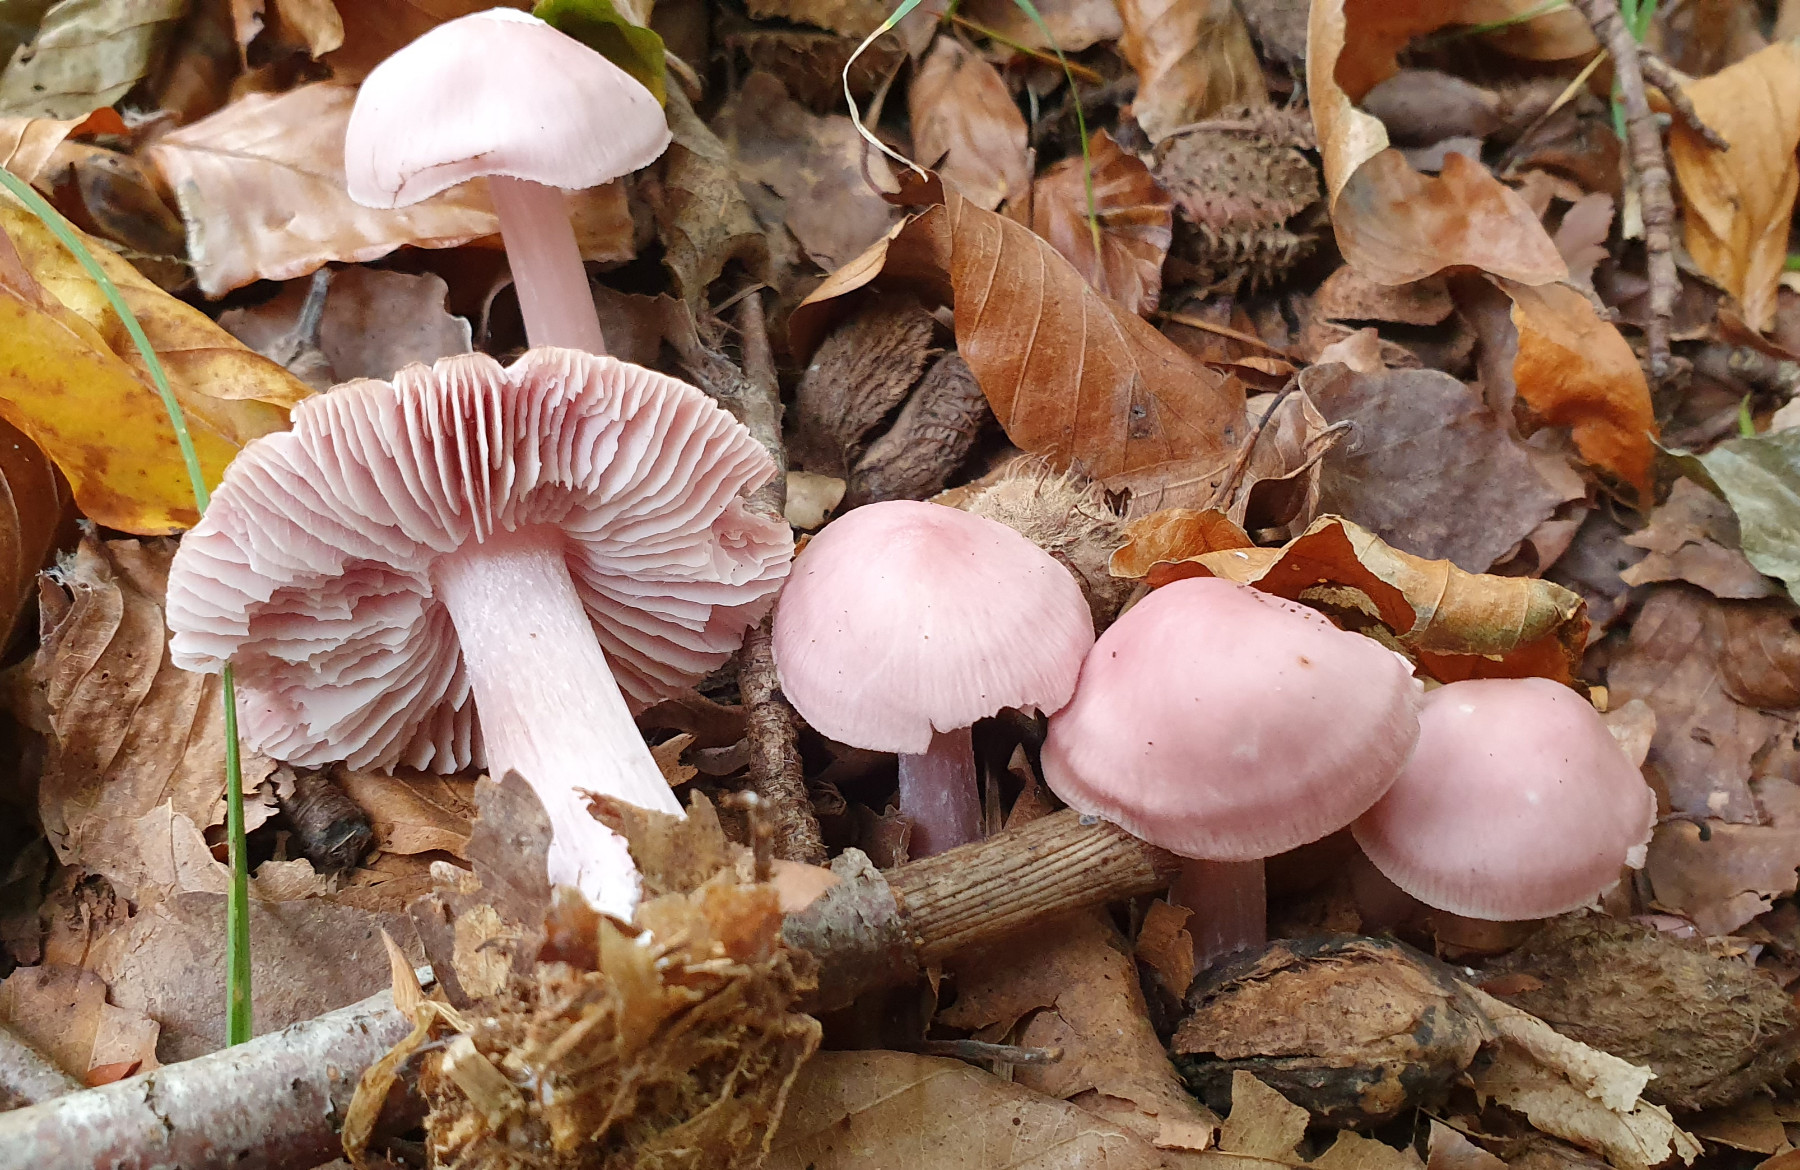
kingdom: Fungi
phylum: Basidiomycota
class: Agaricomycetes
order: Agaricales
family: Mycenaceae
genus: Mycena
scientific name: Mycena rosea
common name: rosa huesvamp
